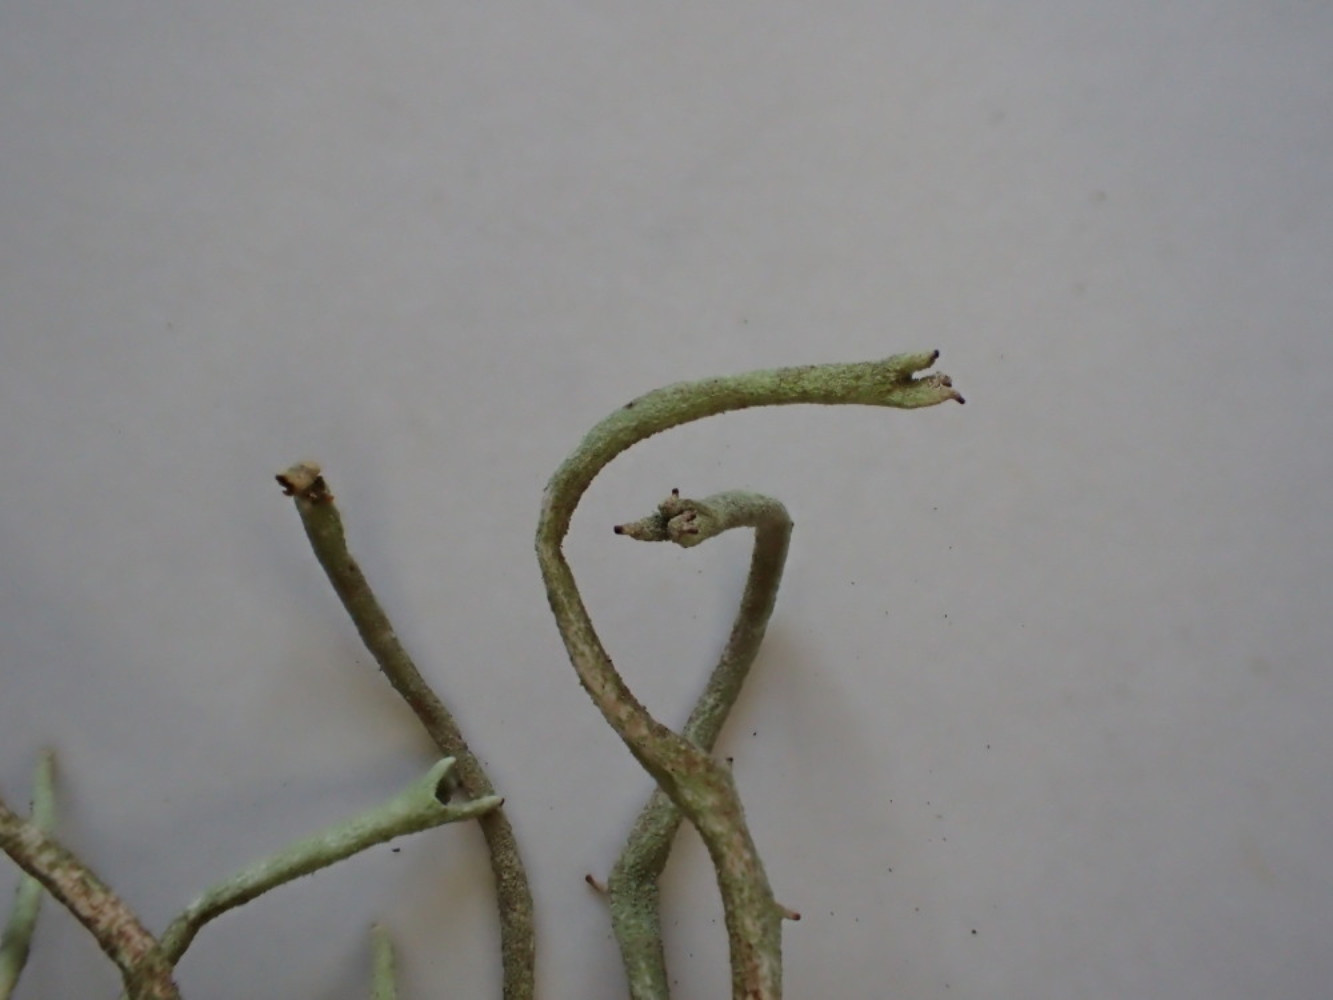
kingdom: Fungi
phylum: Ascomycota
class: Lecanoromycetes
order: Lecanorales
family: Cladoniaceae
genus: Cladonia
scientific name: Cladonia subulata
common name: spids bægerlav
